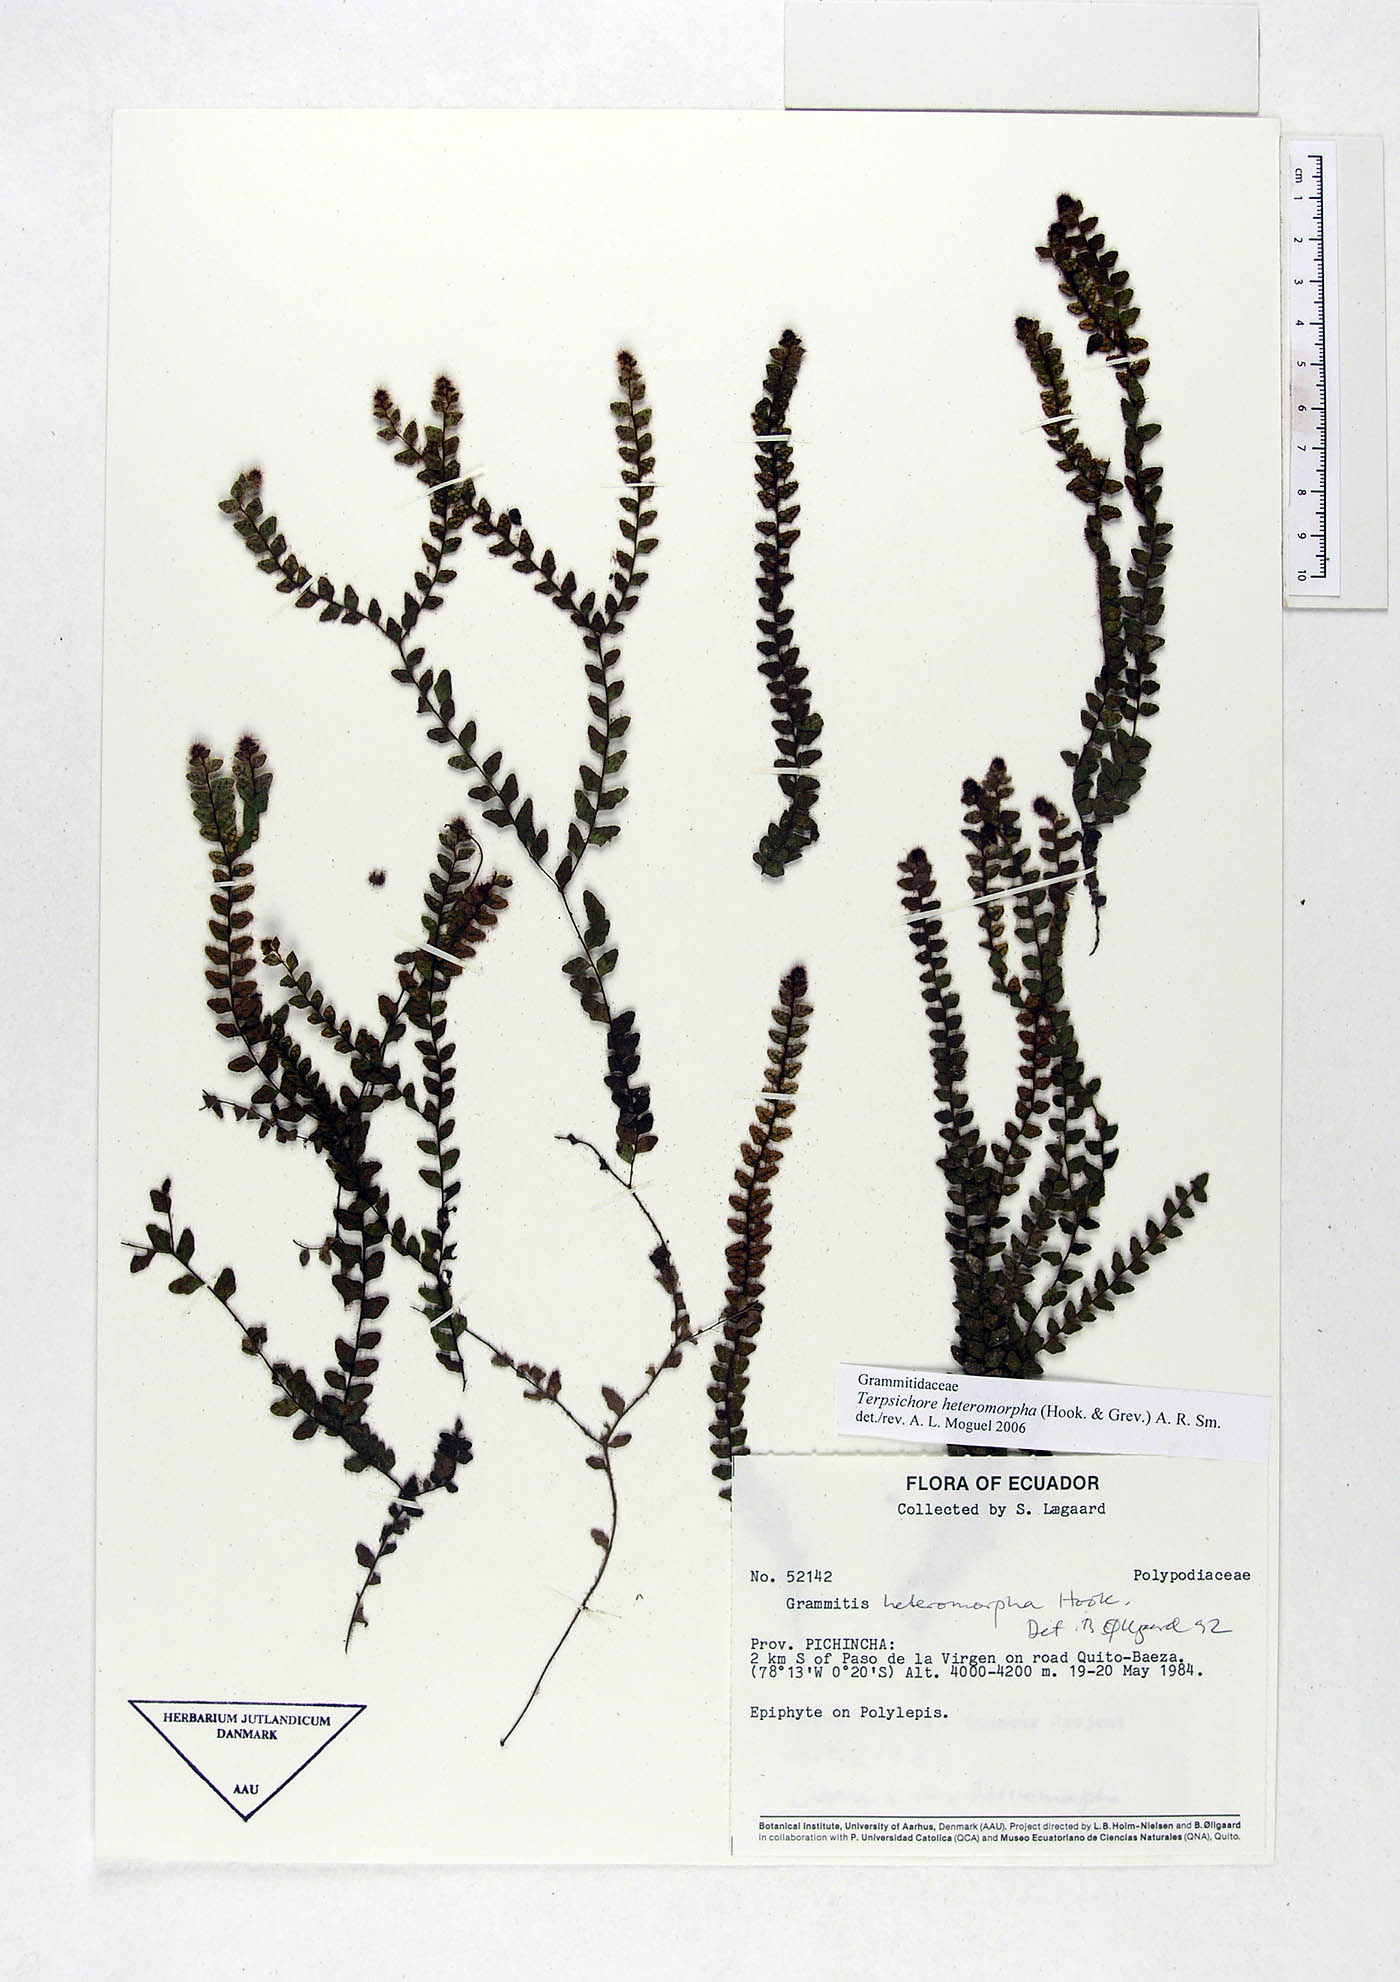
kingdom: Plantae
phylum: Tracheophyta
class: Polypodiopsida
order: Polypodiales
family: Polypodiaceae
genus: Alansmia
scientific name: Alansmia heteromorpha
